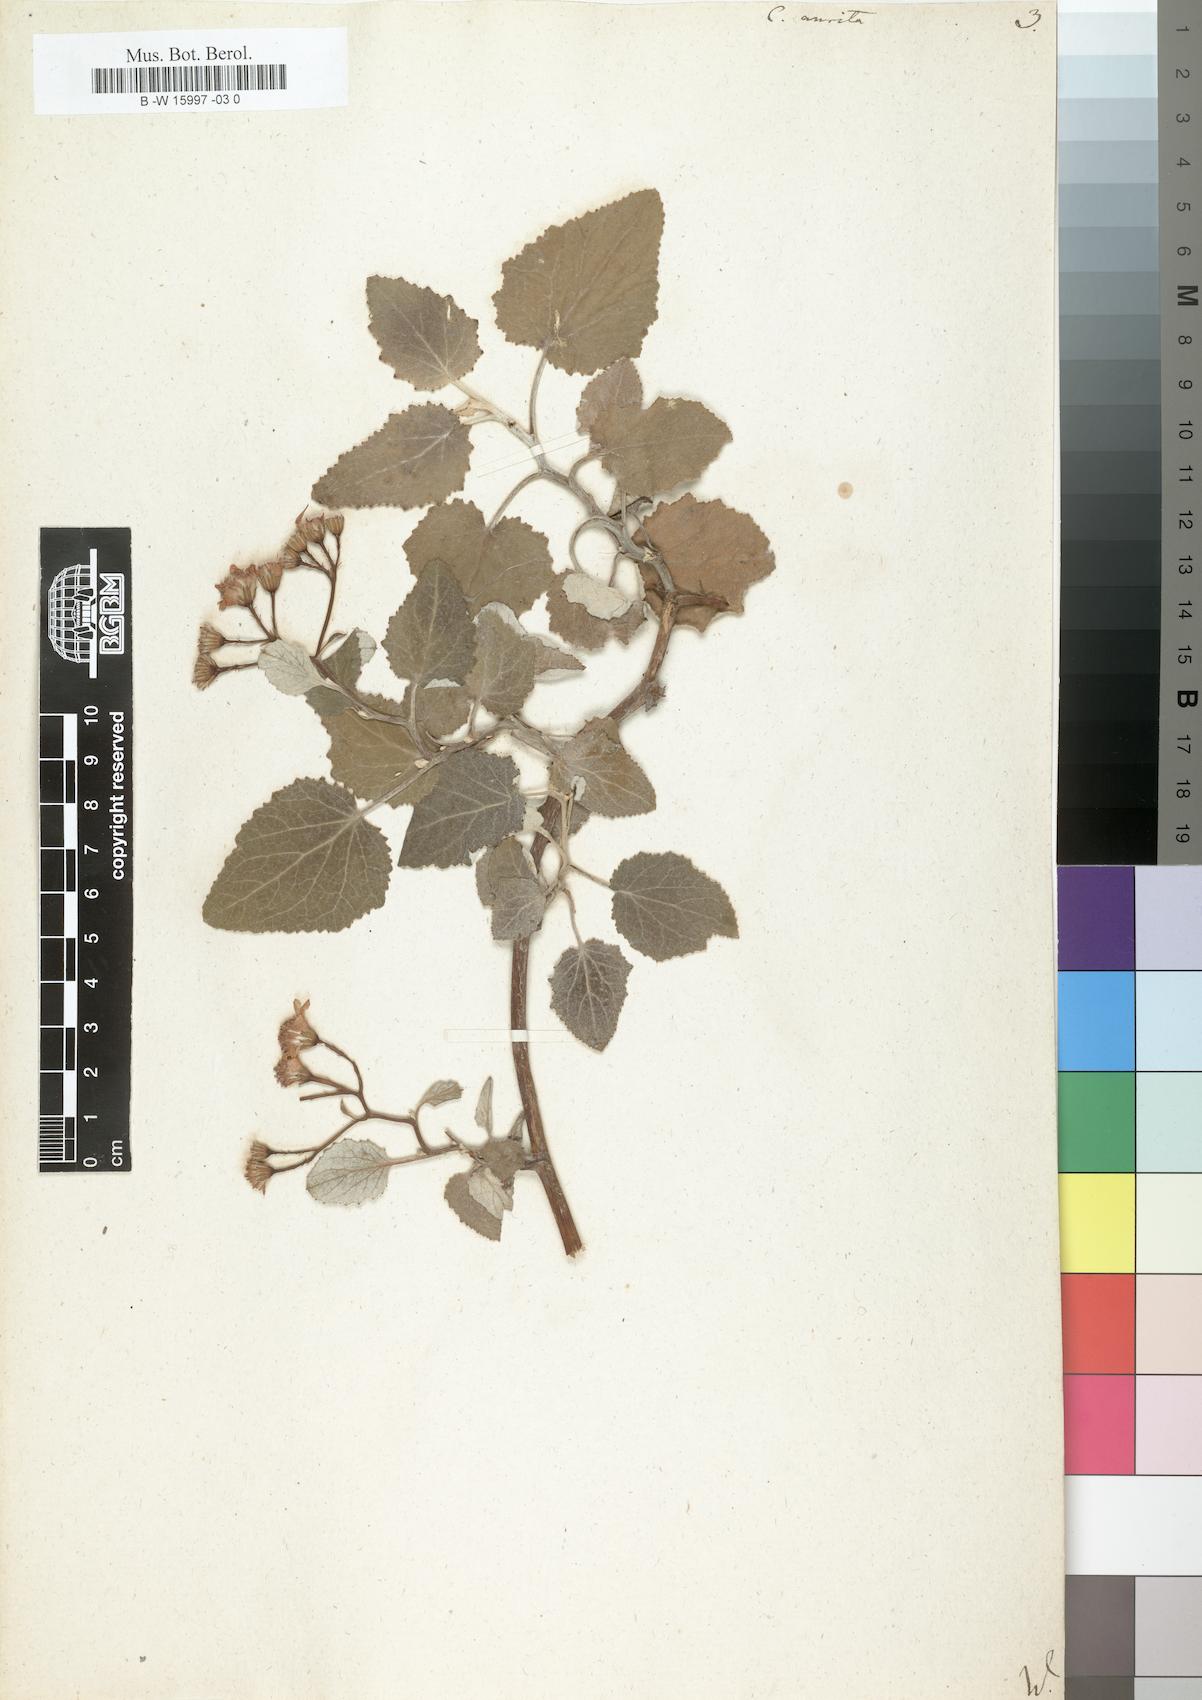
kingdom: Plantae
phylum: Tracheophyta
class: Magnoliopsida
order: Asterales
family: Asteraceae
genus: Pericallis
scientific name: Pericallis lanata
